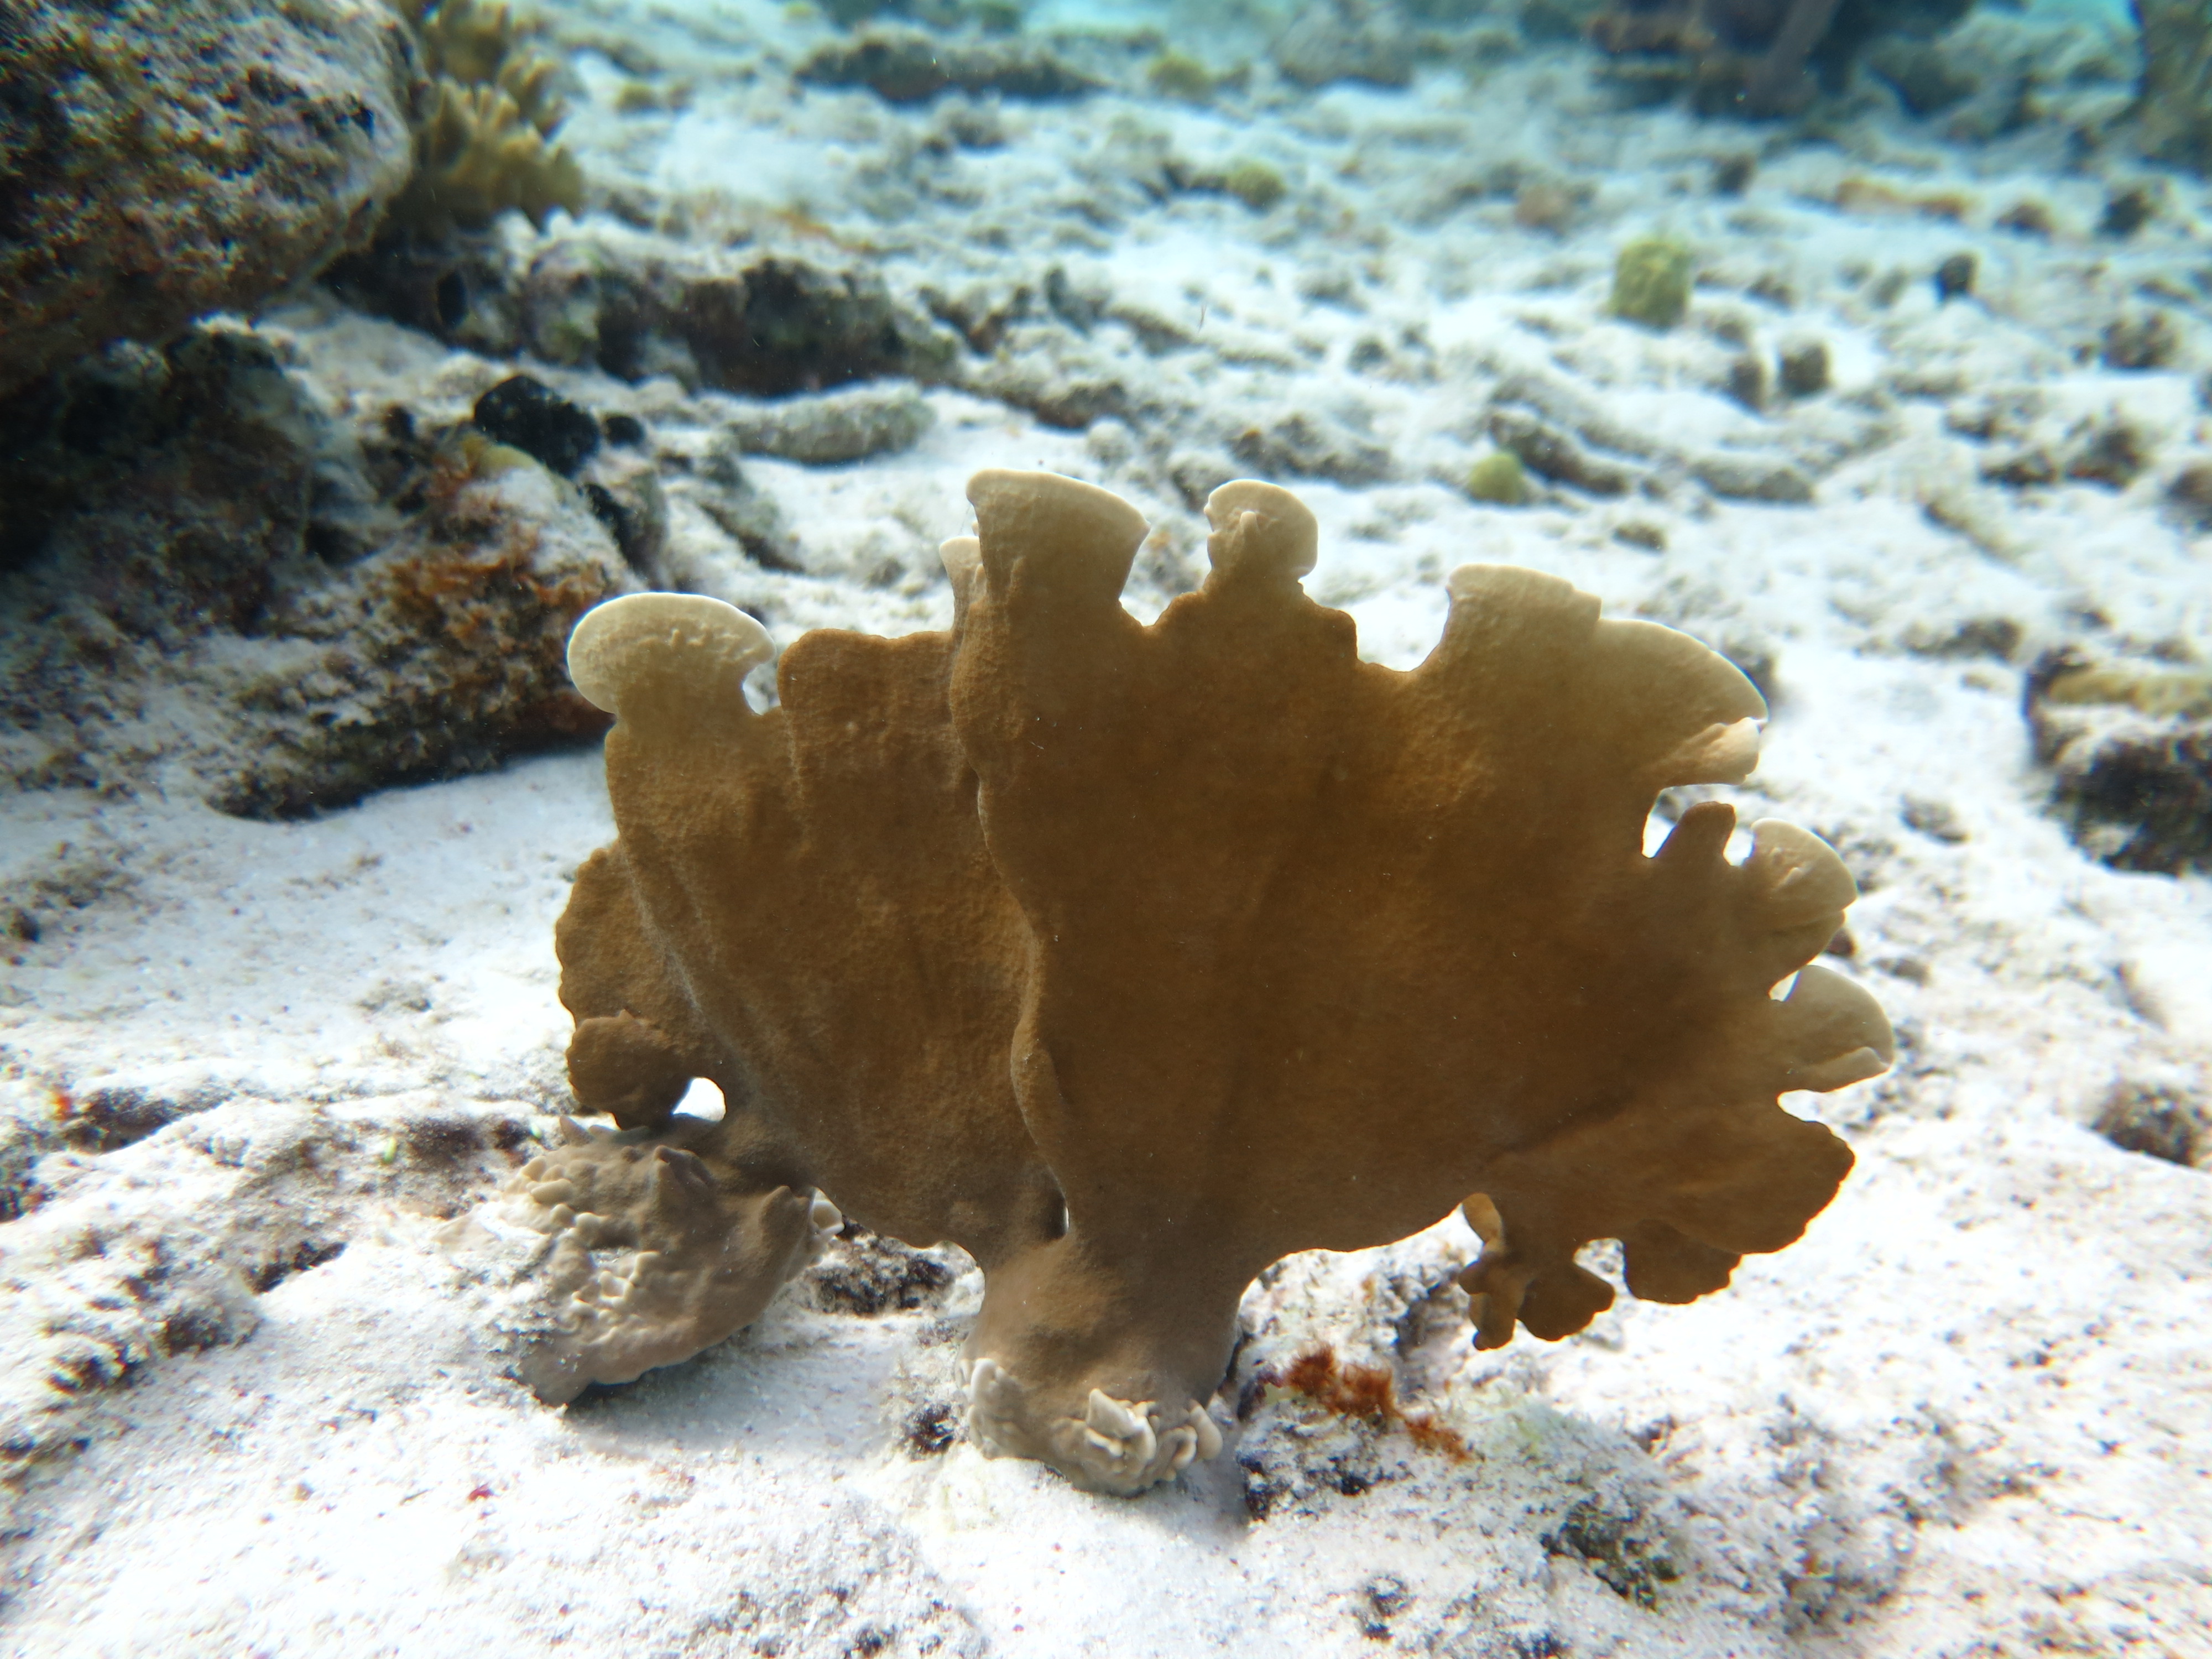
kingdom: Animalia
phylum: Cnidaria
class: Anthozoa
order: Scleractinia
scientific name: Scleractinia
